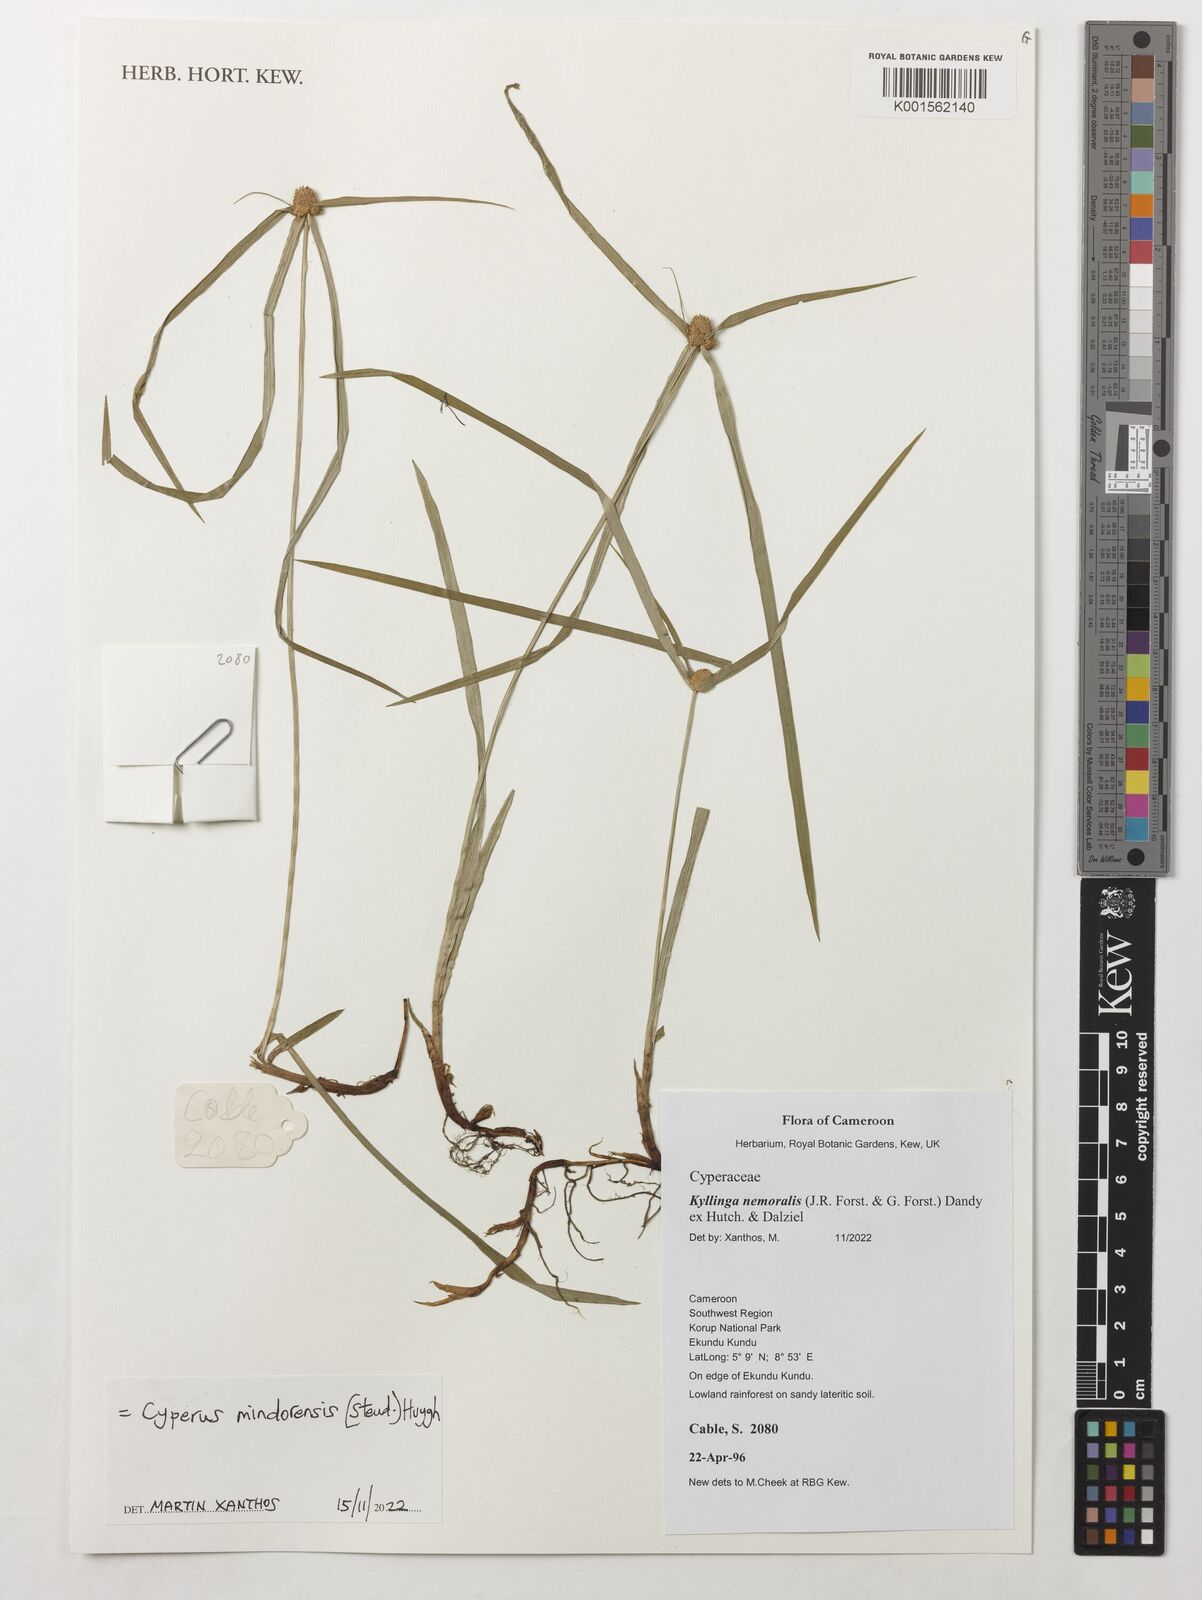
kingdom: Plantae
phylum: Tracheophyta
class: Liliopsida
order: Poales
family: Cyperaceae
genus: Cyperus
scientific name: Cyperus mindorensis
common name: Flatsedge
